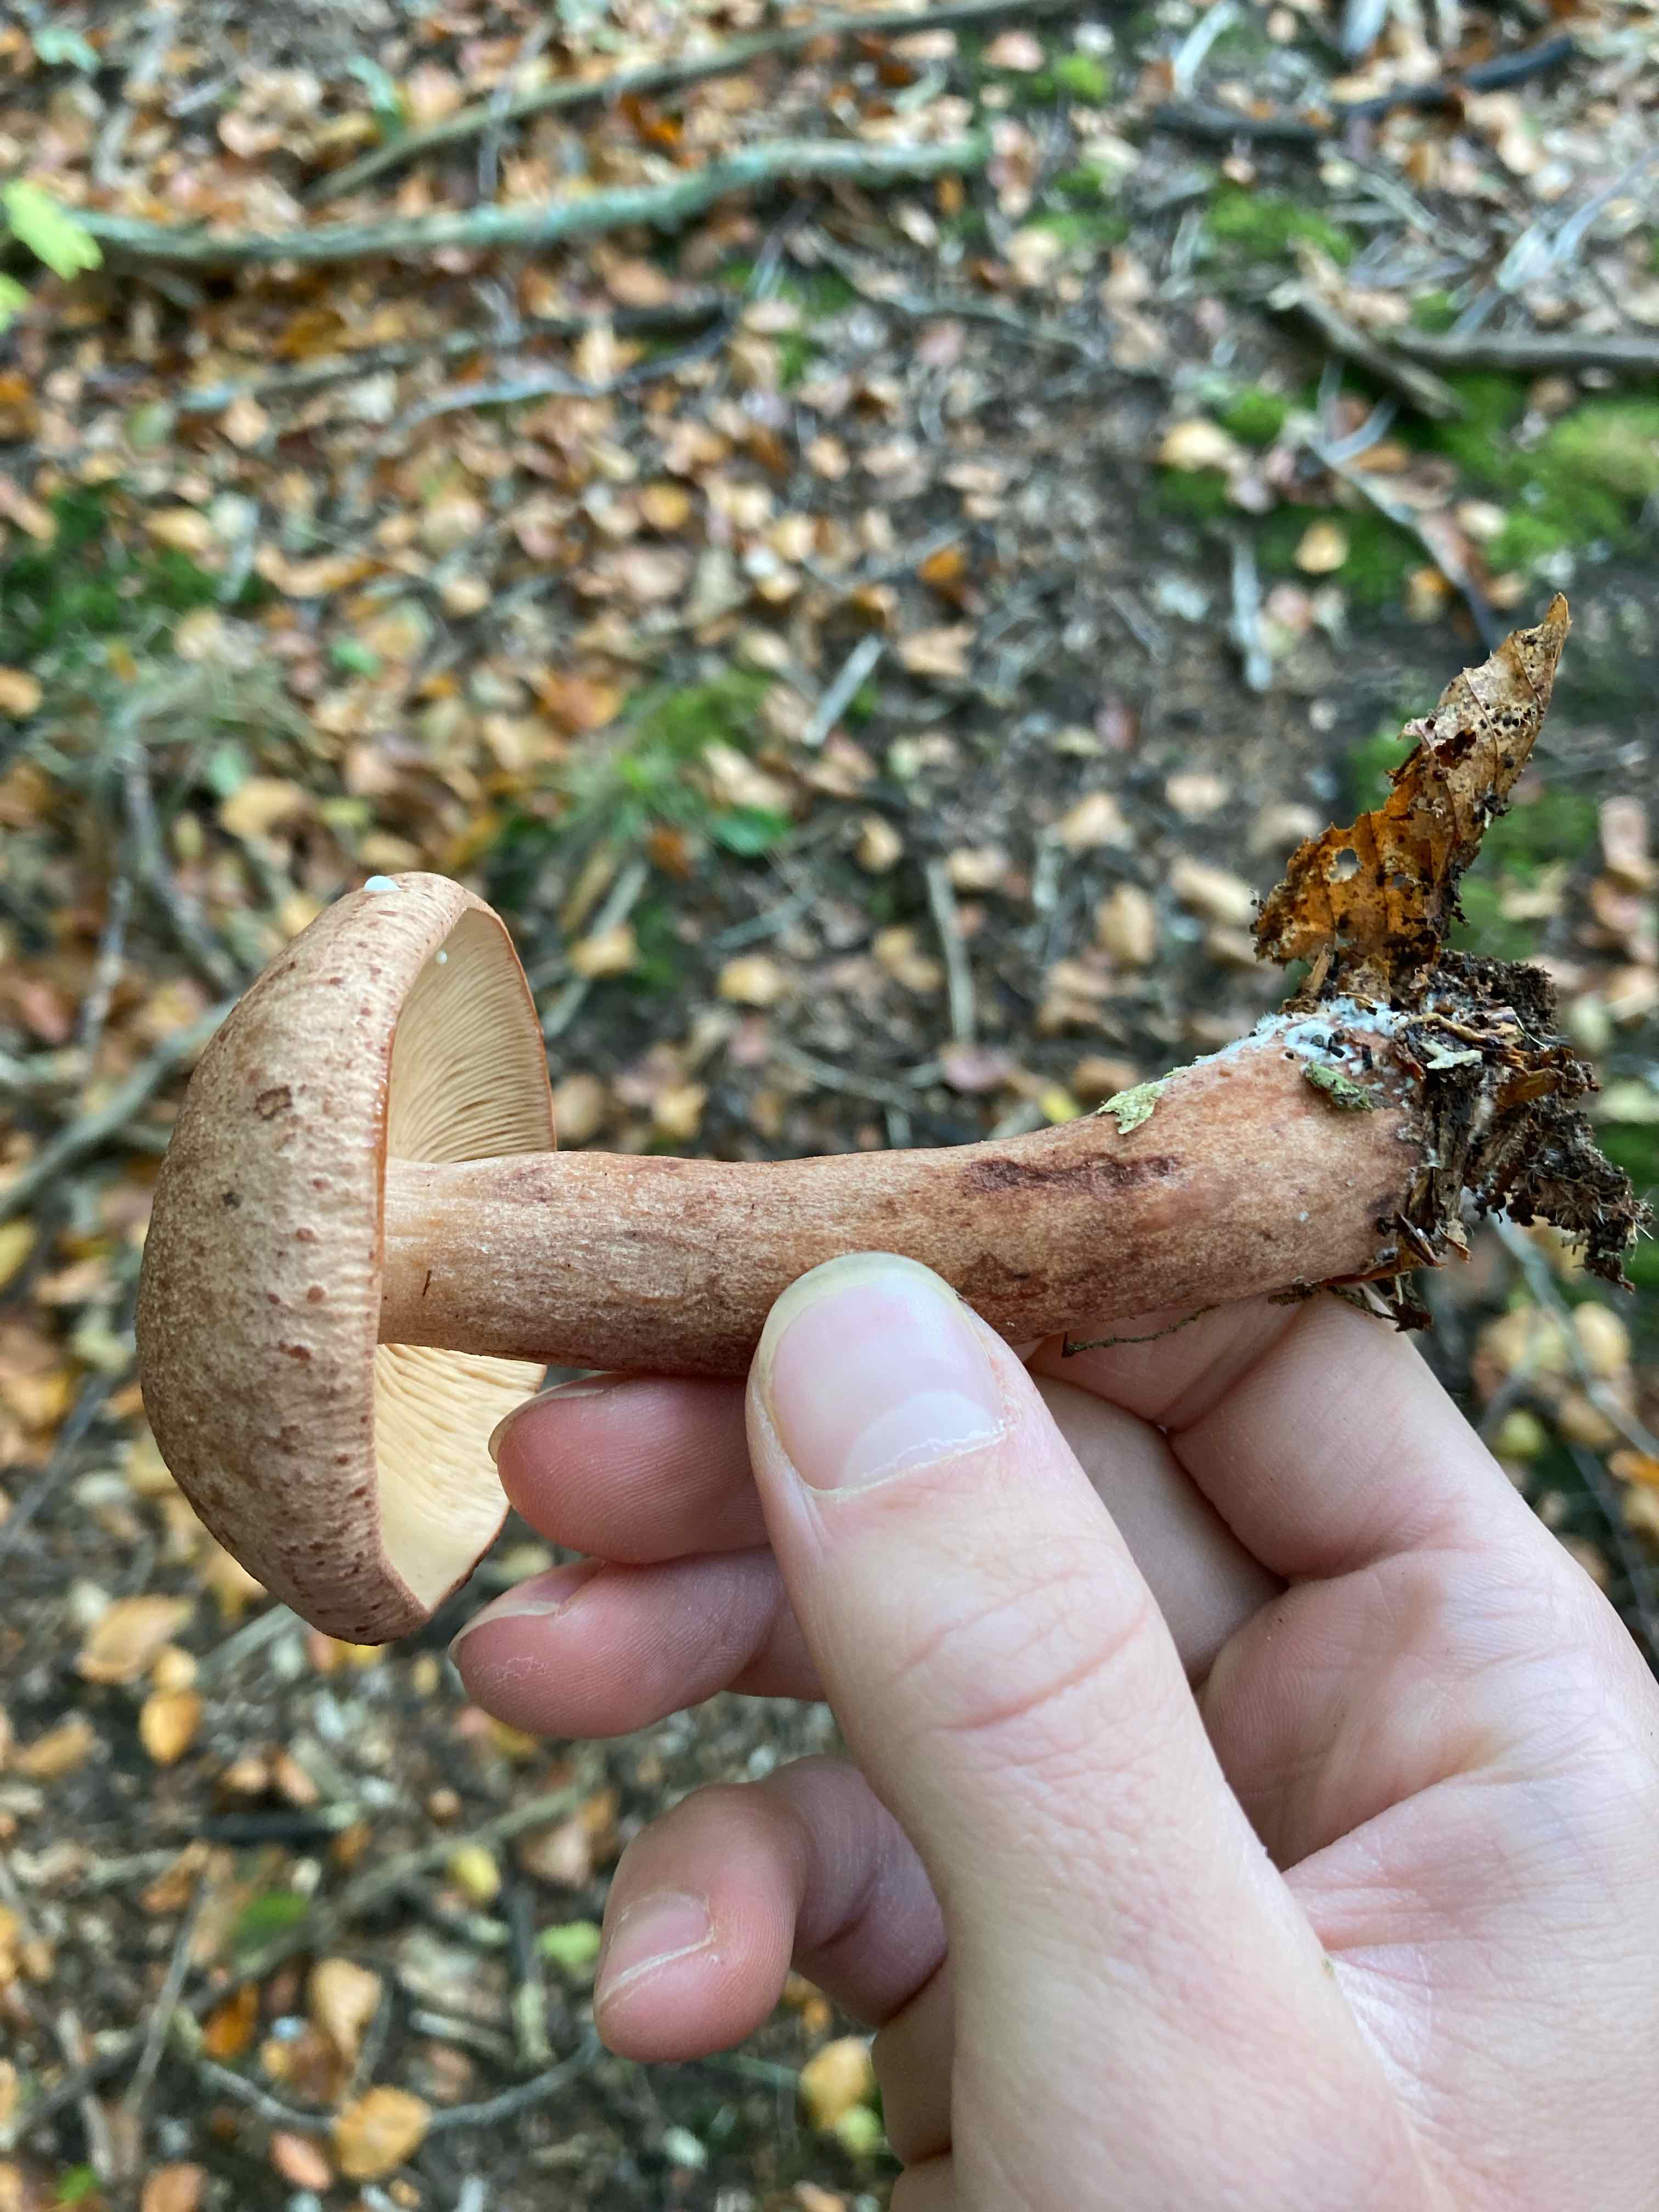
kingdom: Fungi
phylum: Basidiomycota
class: Agaricomycetes
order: Russulales
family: Russulaceae
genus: Lactarius
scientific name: Lactarius quietus
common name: ege-mælkehat
